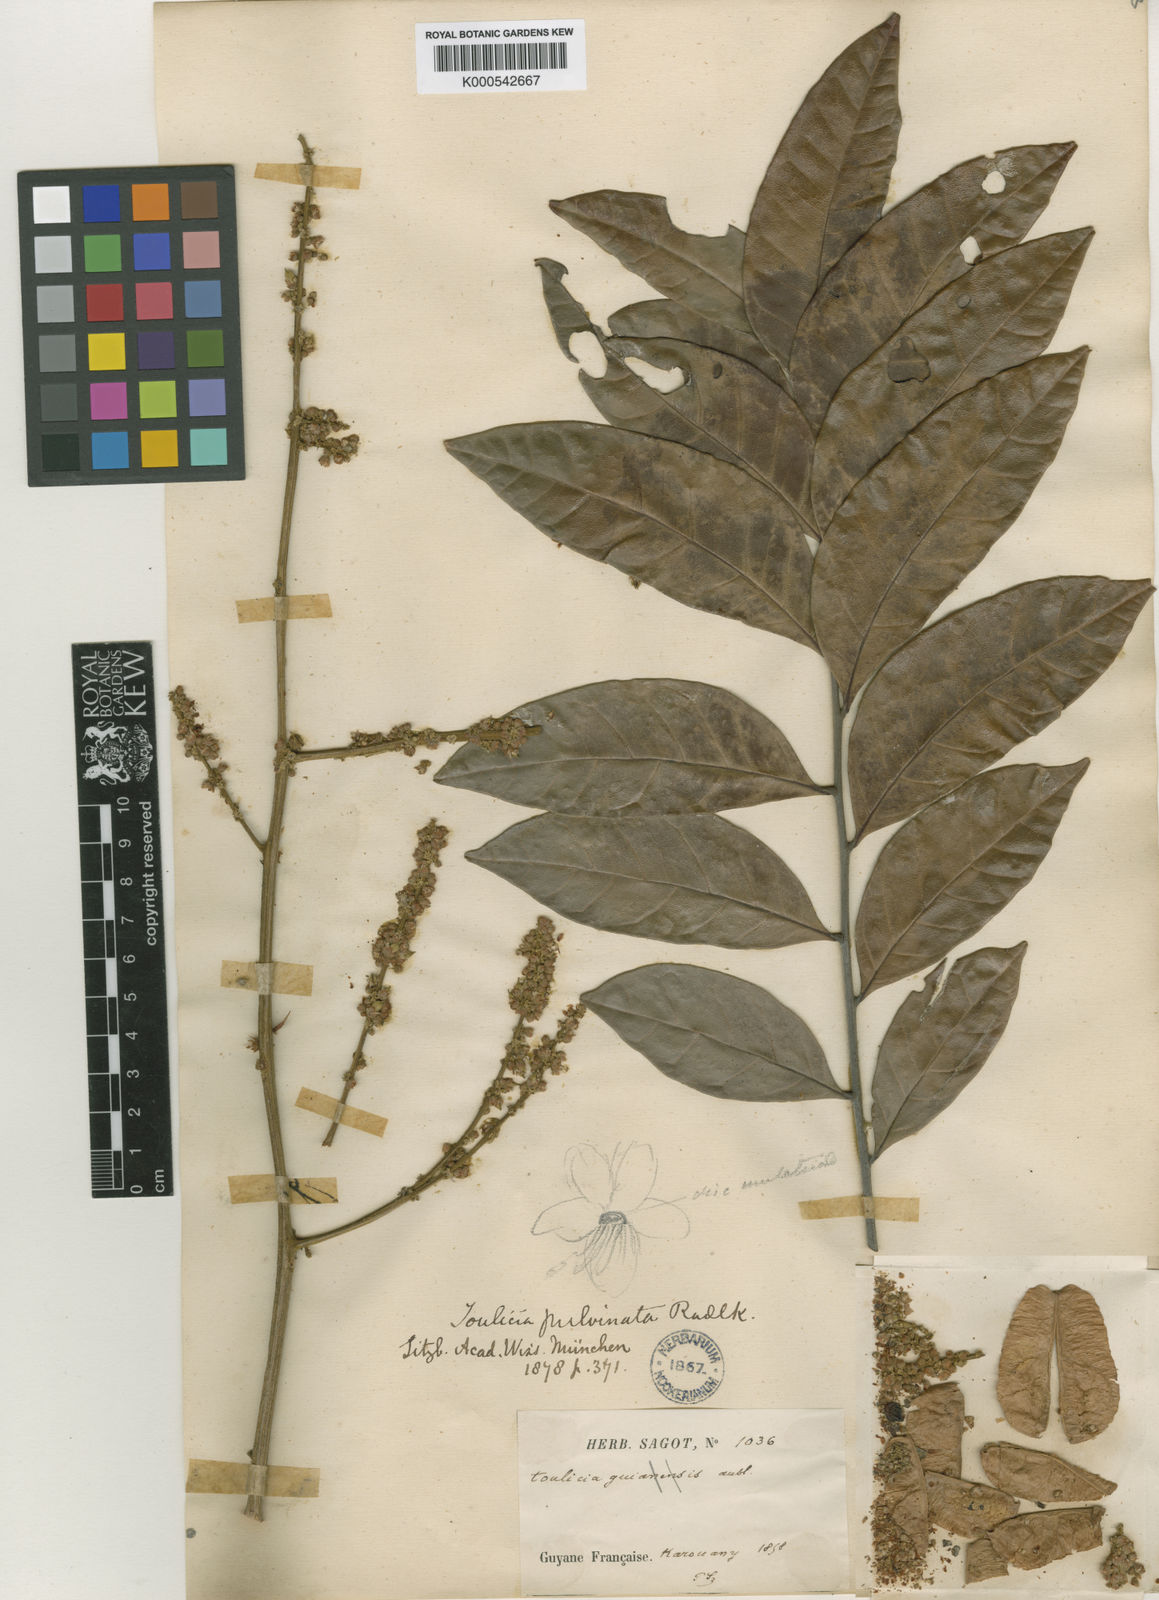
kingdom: Plantae
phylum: Tracheophyta
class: Magnoliopsida
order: Sapindales
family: Sapindaceae
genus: Toulicia
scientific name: Toulicia guianensis
